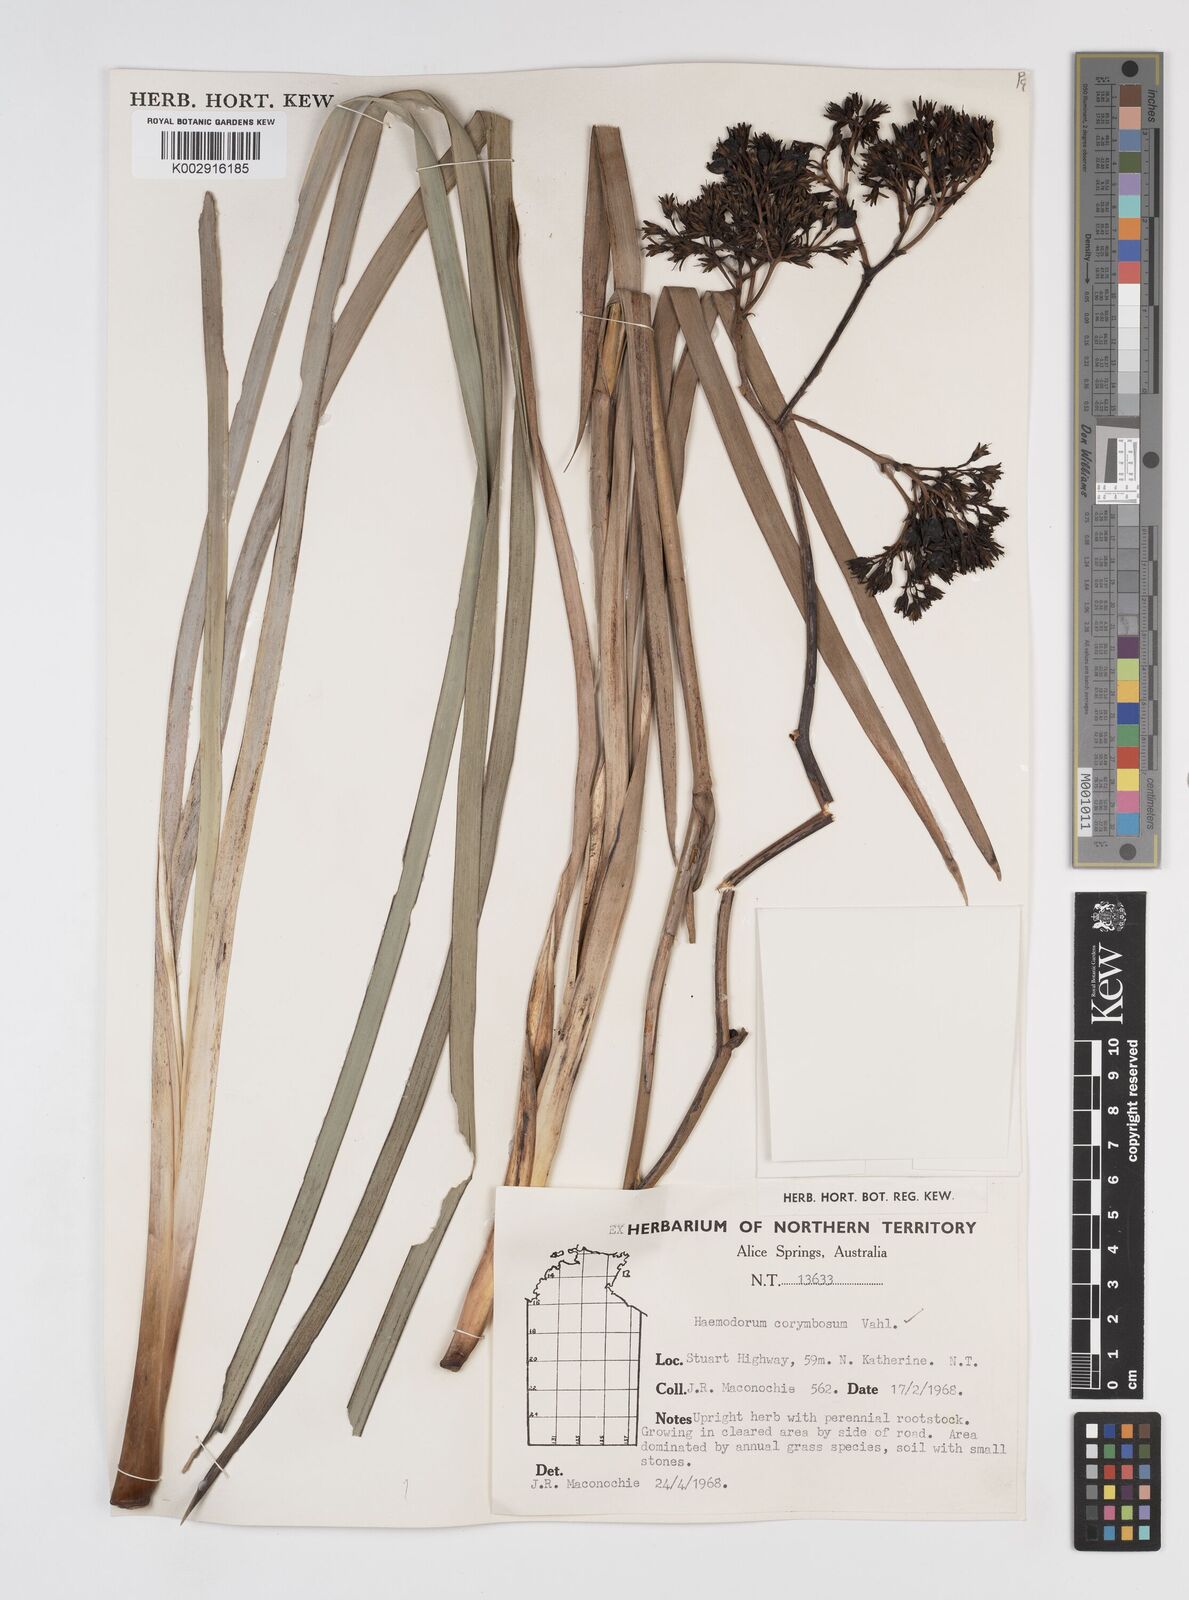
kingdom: Plantae
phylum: Tracheophyta
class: Liliopsida
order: Commelinales
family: Haemodoraceae
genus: Haemodorum
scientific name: Haemodorum corymbosum
